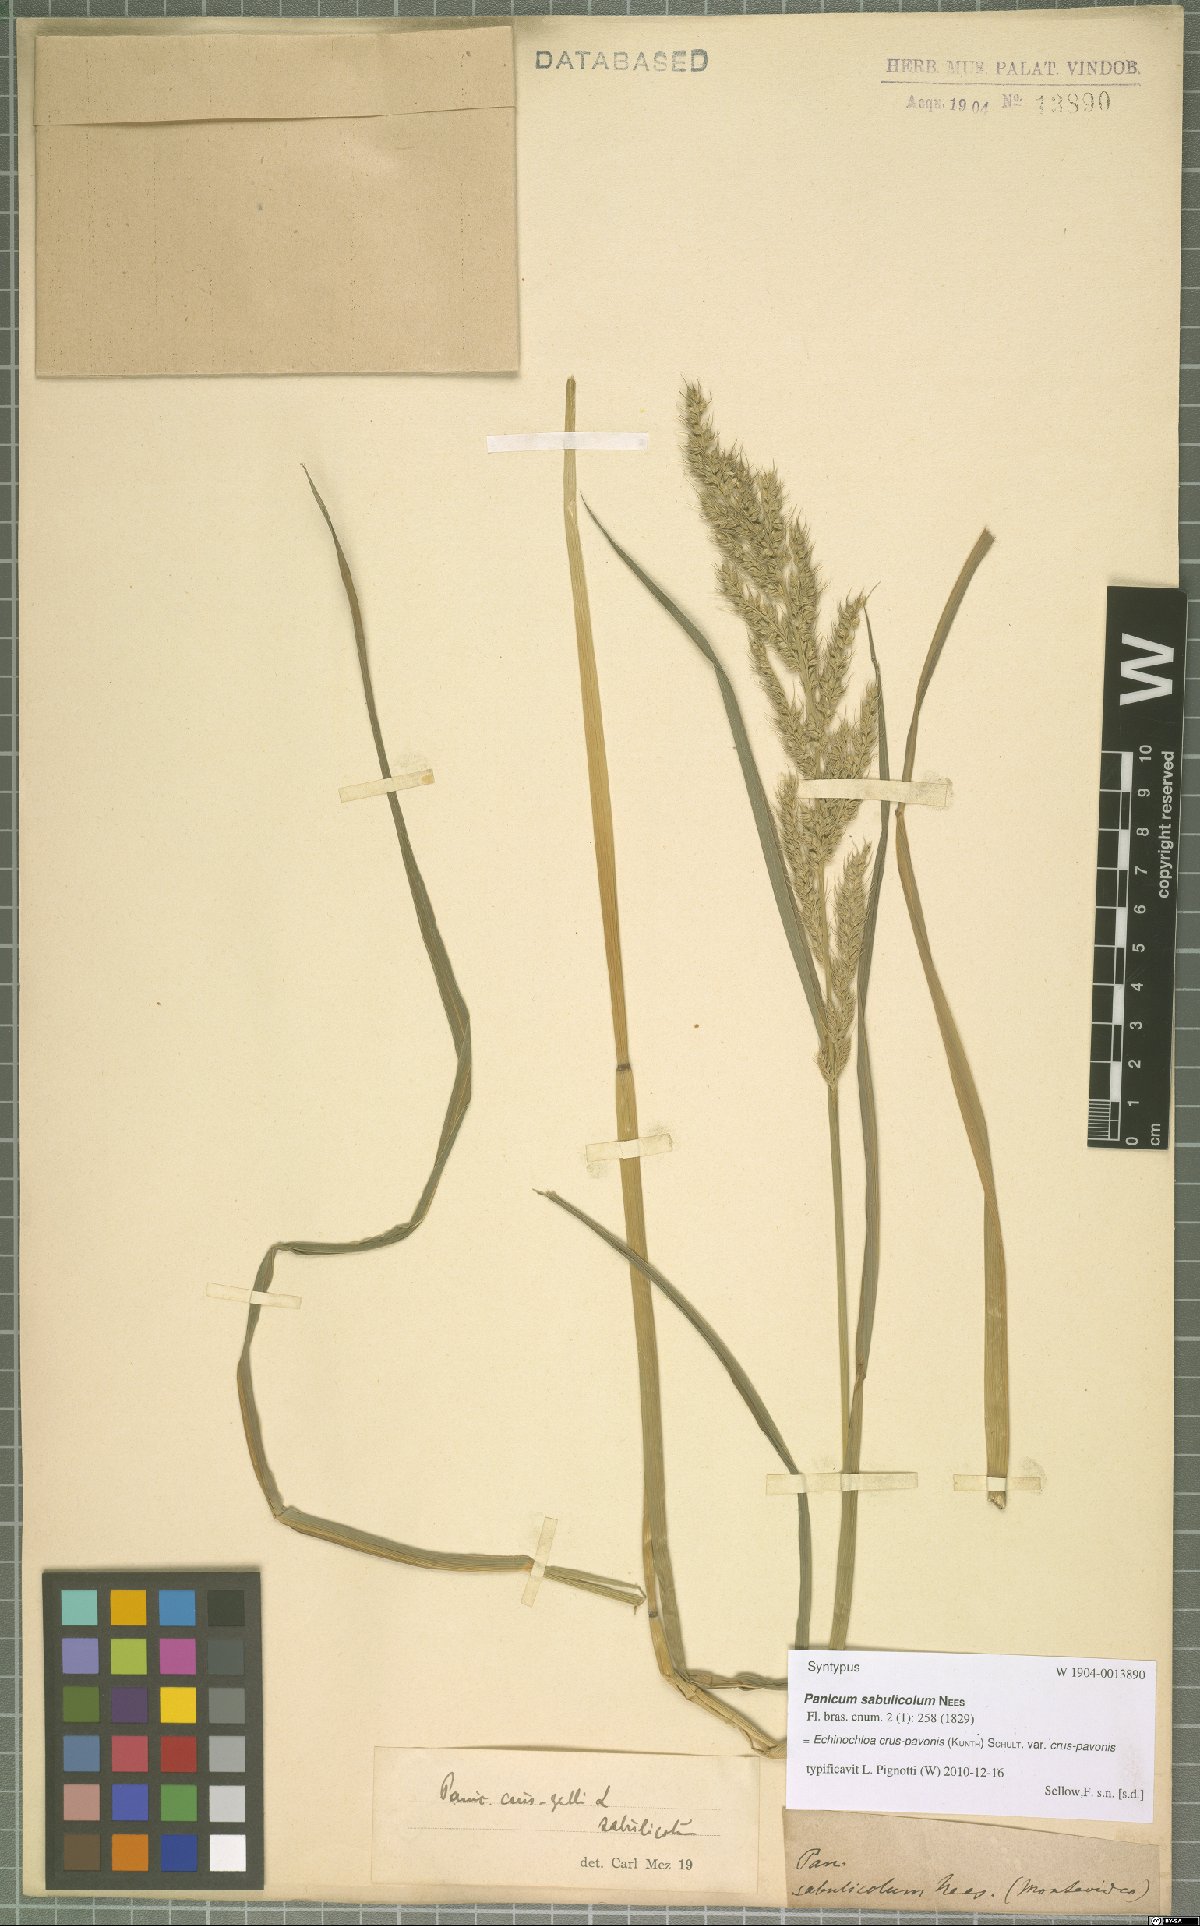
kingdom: Plantae
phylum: Tracheophyta
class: Liliopsida
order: Poales
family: Poaceae
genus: Echinochloa
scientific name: Echinochloa crus-pavonis
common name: Gulf cockspur grass
